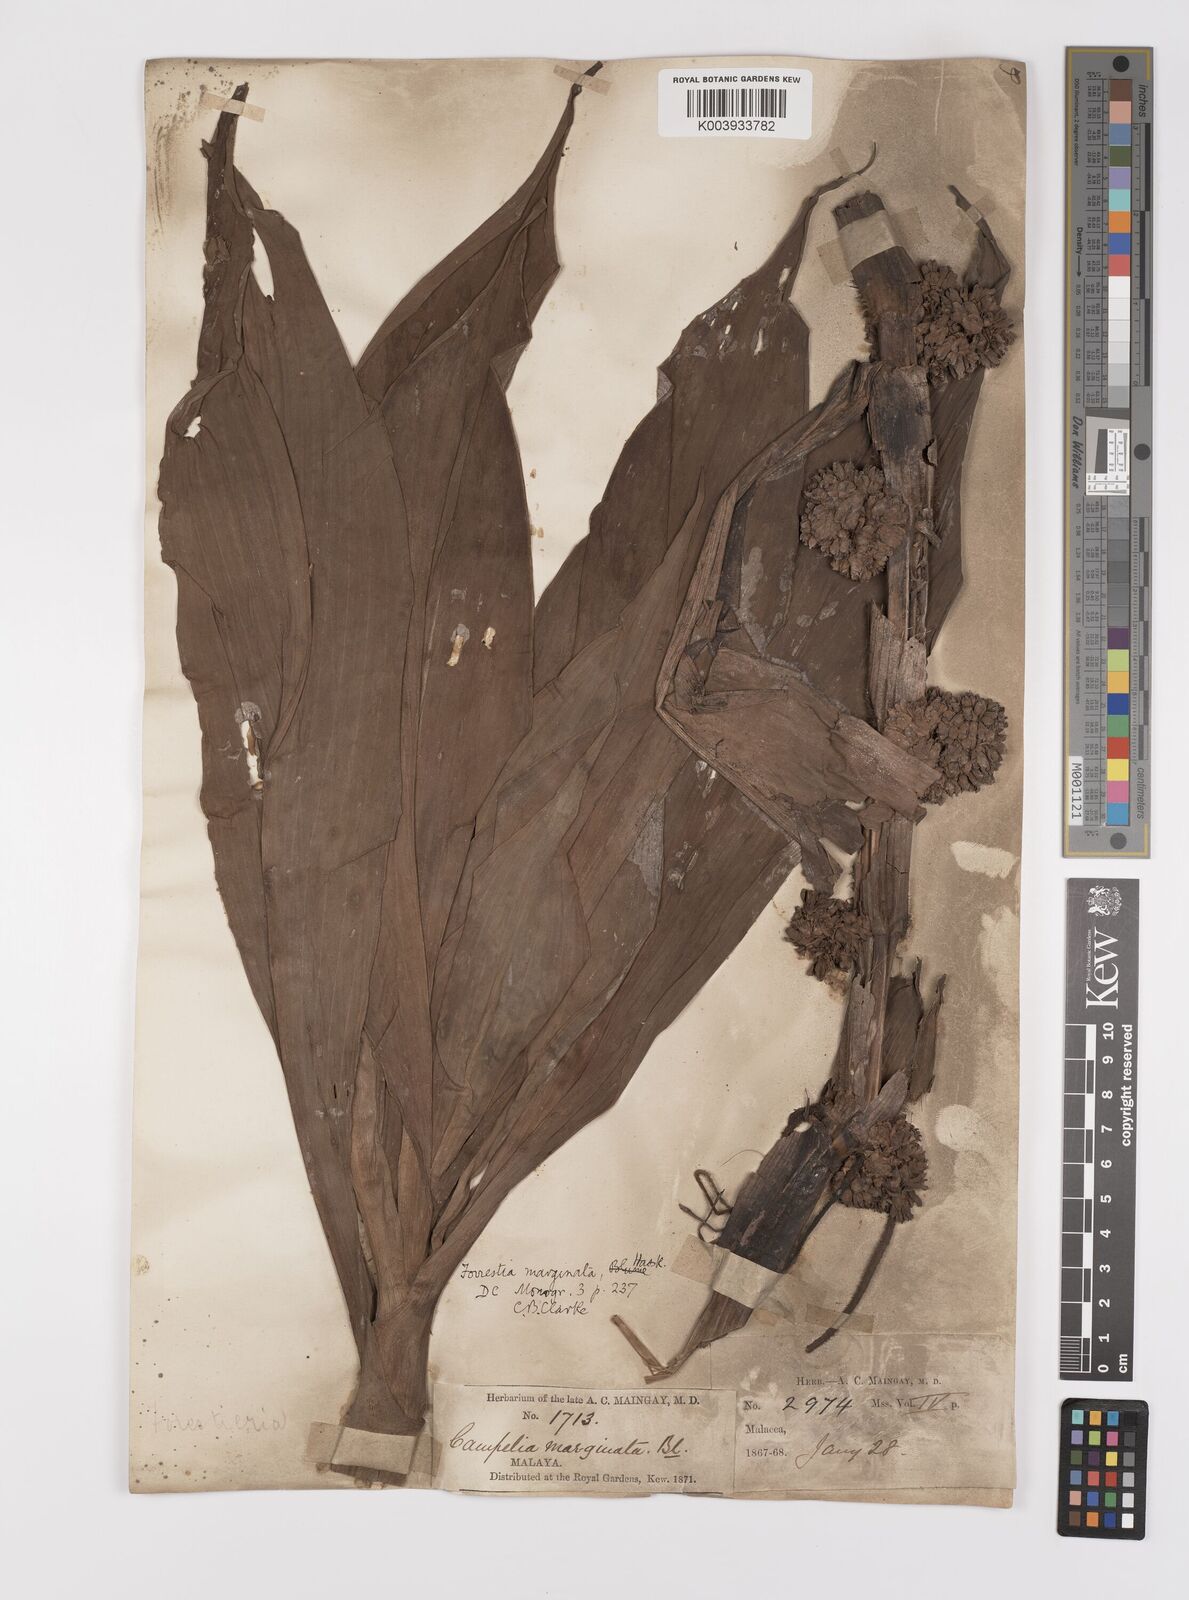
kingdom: Plantae
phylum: Tracheophyta
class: Liliopsida
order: Commelinales
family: Commelinaceae
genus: Amischotolype
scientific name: Amischotolype marginata
